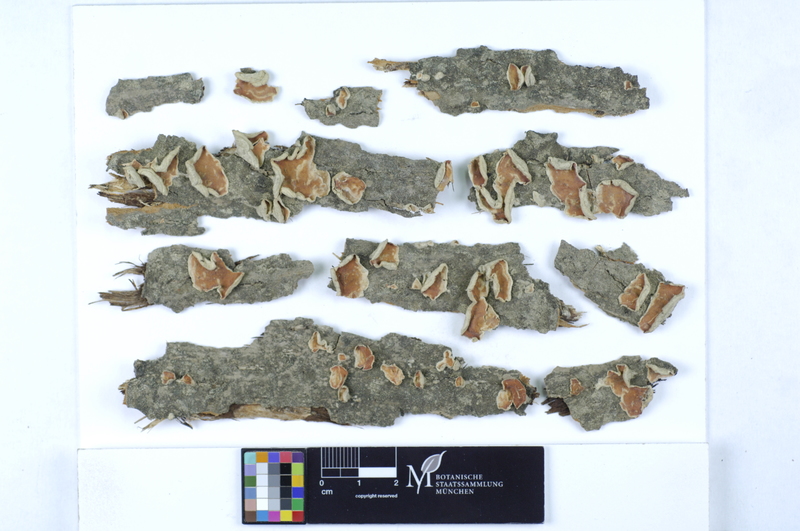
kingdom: Fungi
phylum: Basidiomycota
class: Agaricomycetes
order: Polyporales
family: Irpicaceae
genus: Byssomerulius
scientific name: Byssomerulius corium
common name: Netted crust
